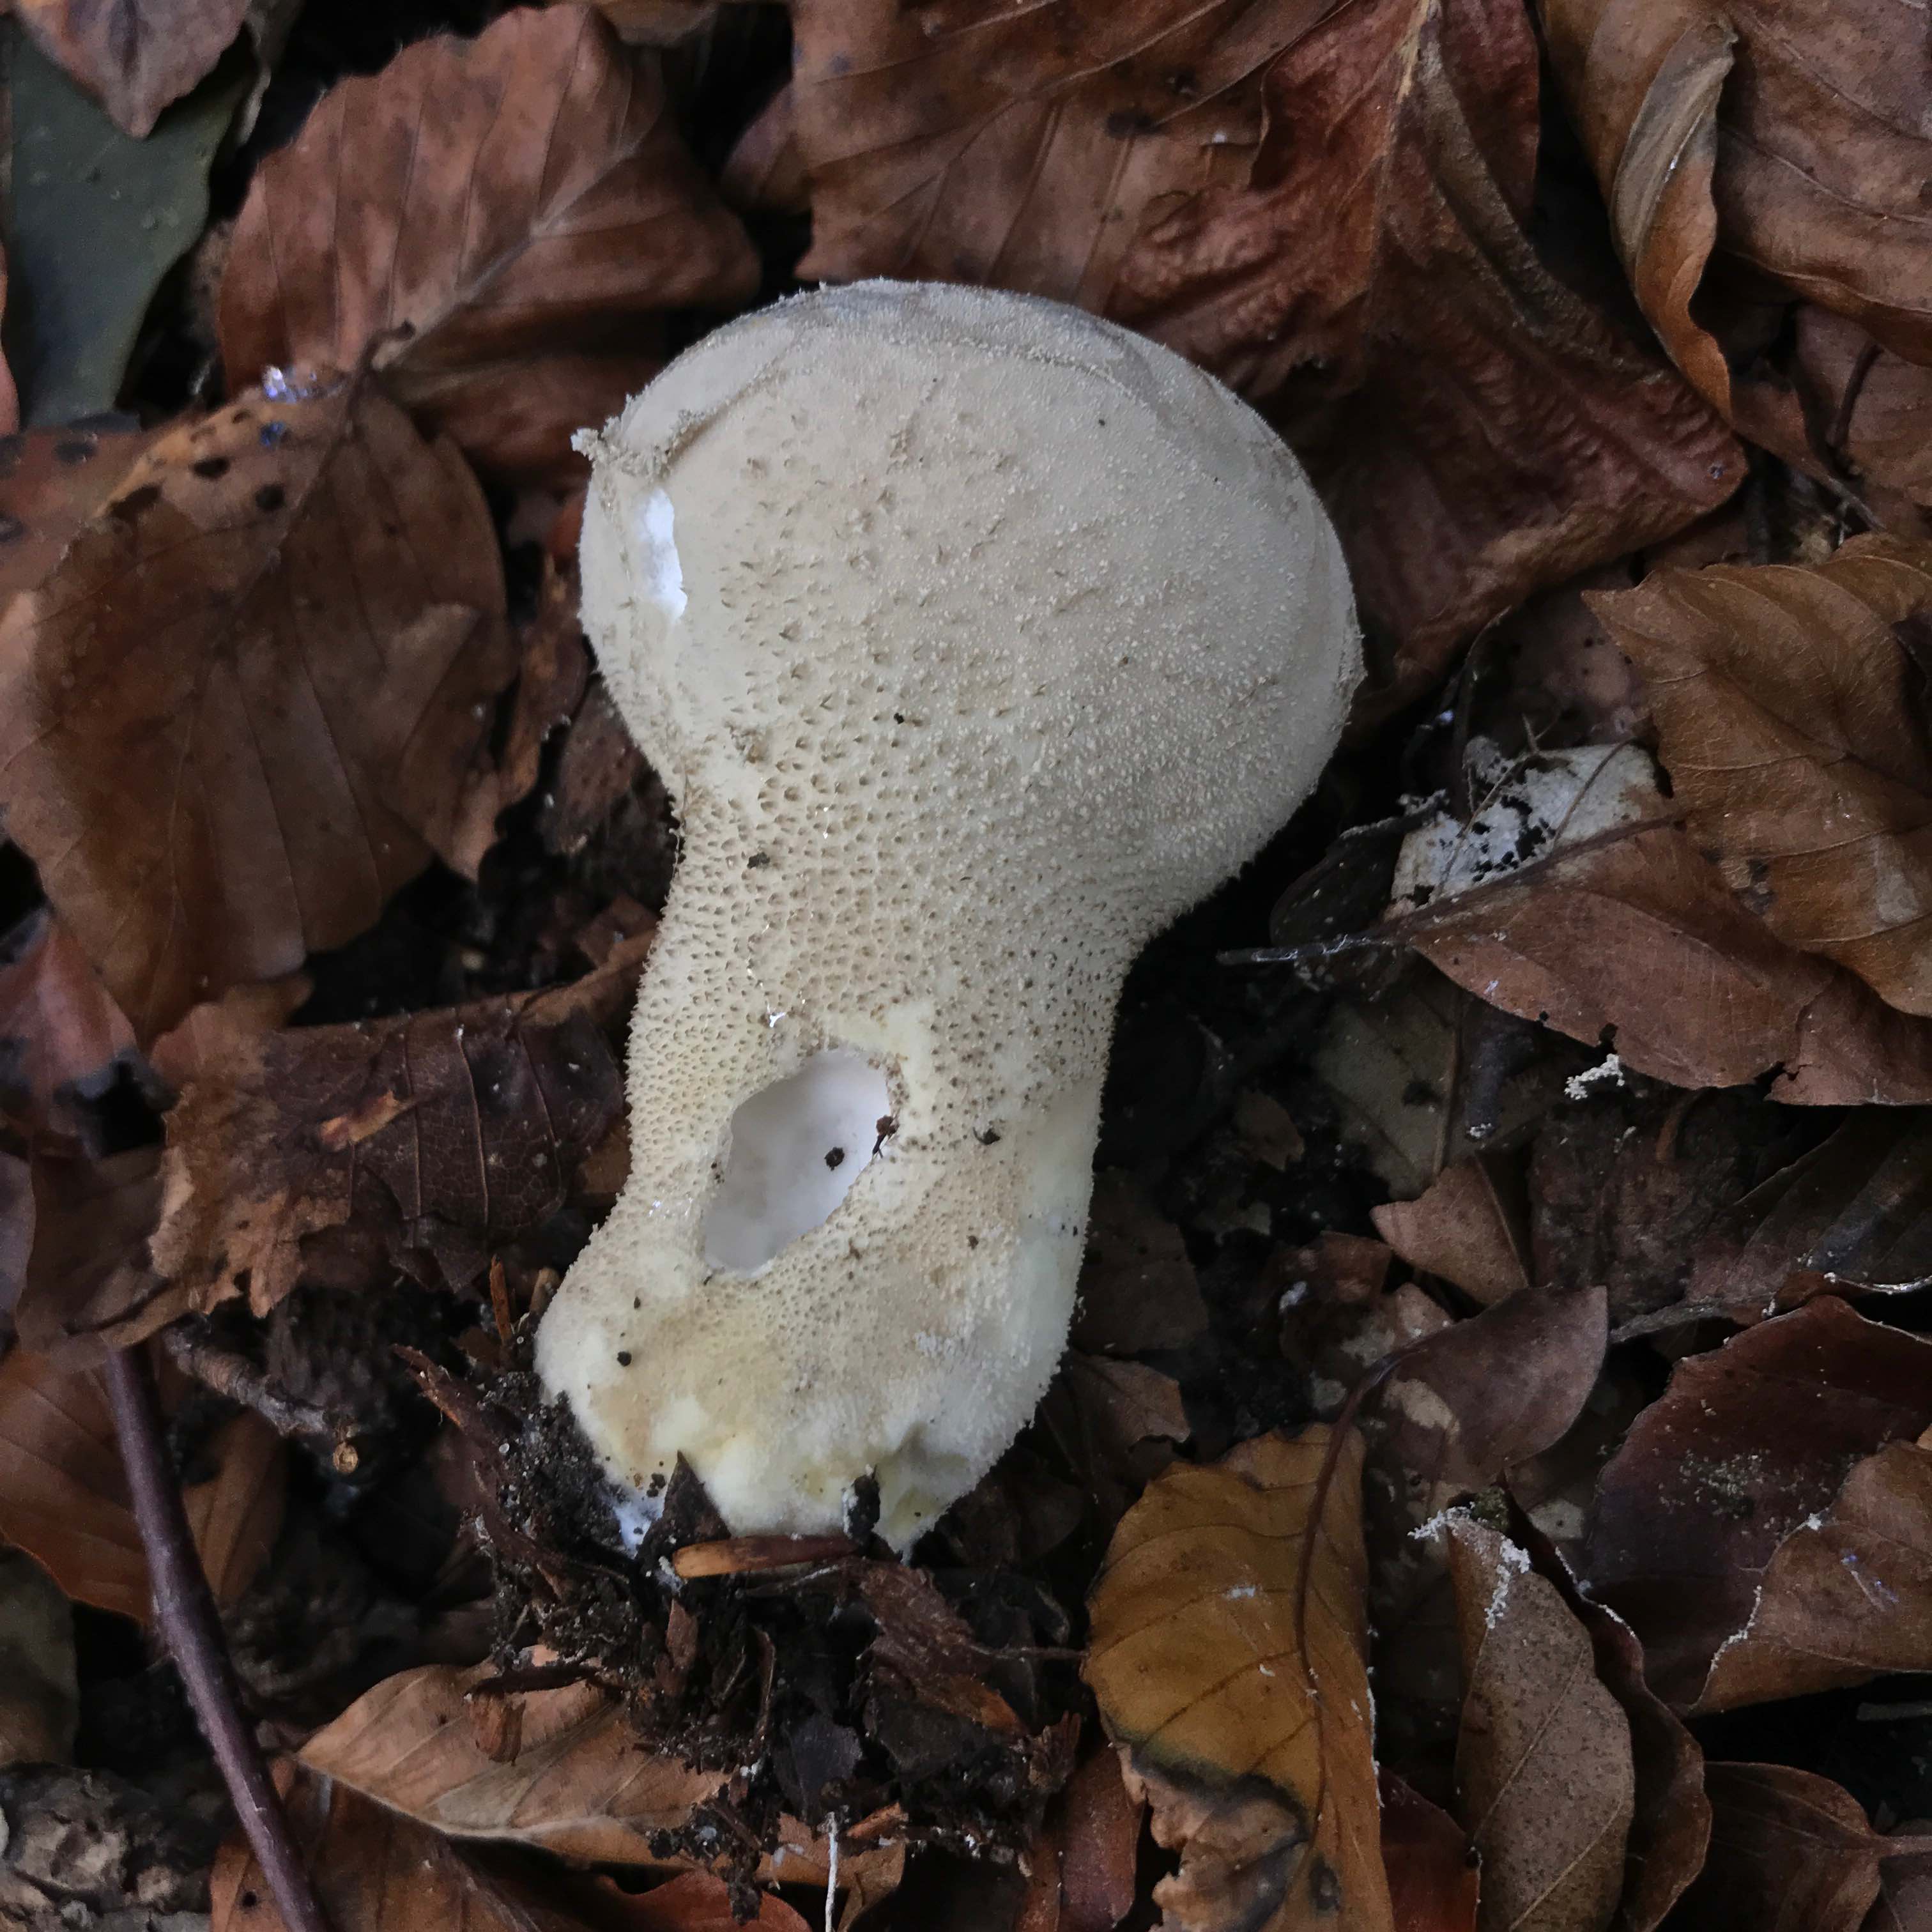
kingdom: Fungi
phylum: Basidiomycota
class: Agaricomycetes
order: Agaricales
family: Lycoperdaceae
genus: Lycoperdon
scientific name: Lycoperdon excipuliforme
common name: højstokket støvbold
